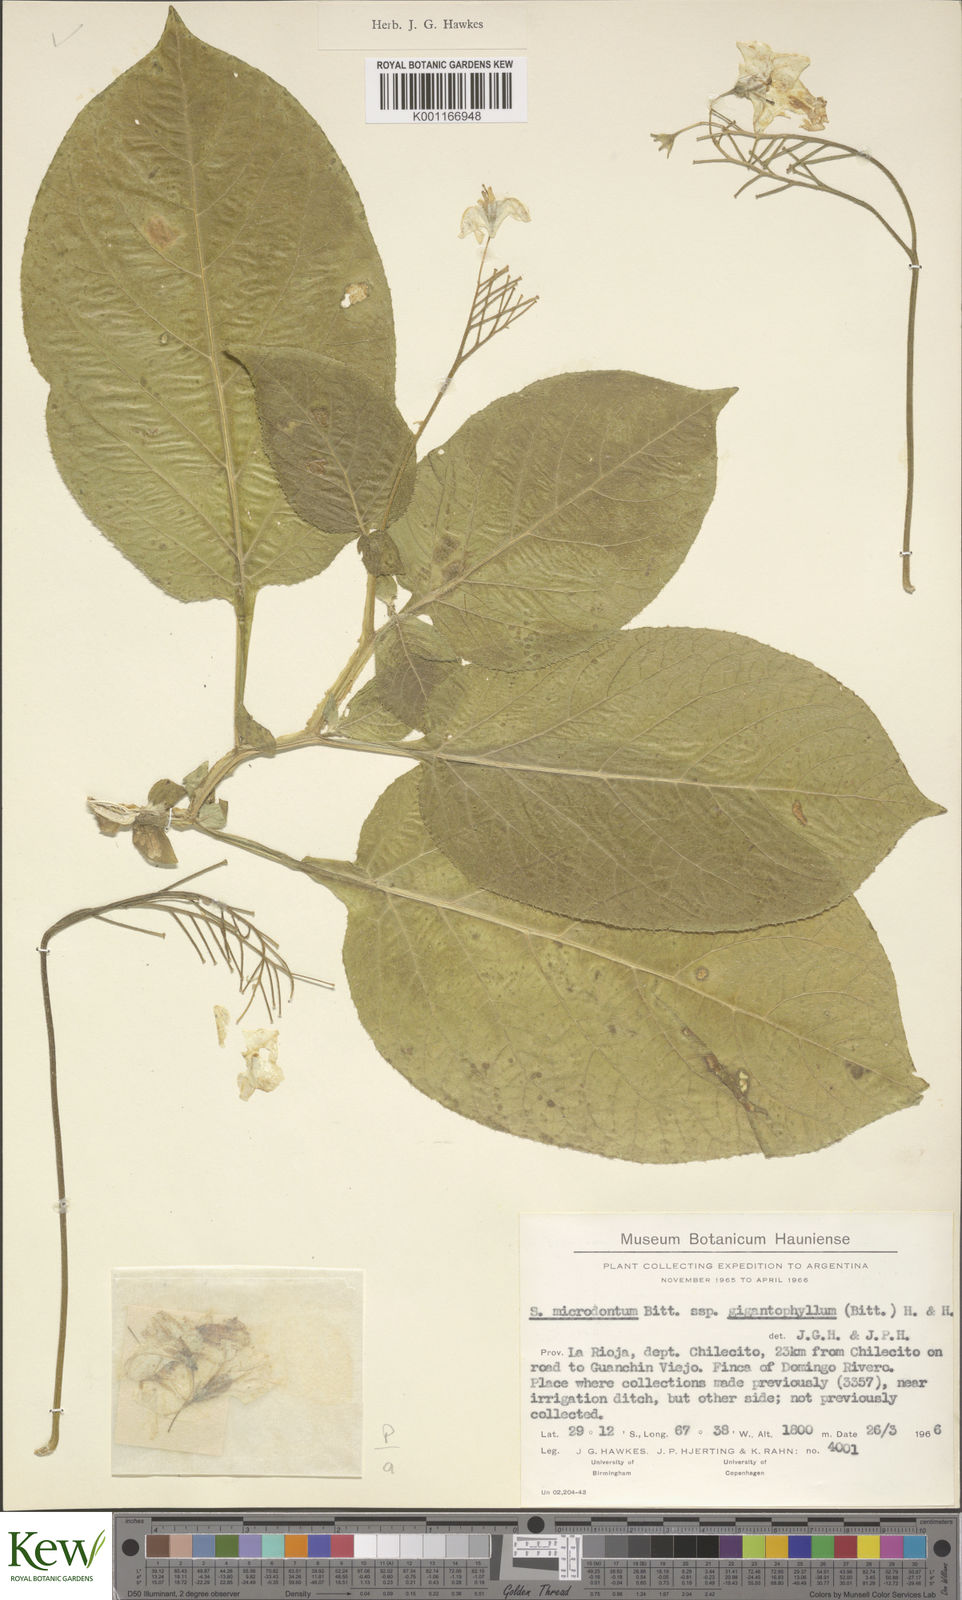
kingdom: Plantae
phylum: Tracheophyta
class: Magnoliopsida
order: Solanales
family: Solanaceae
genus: Solanum
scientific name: Solanum microdontum
